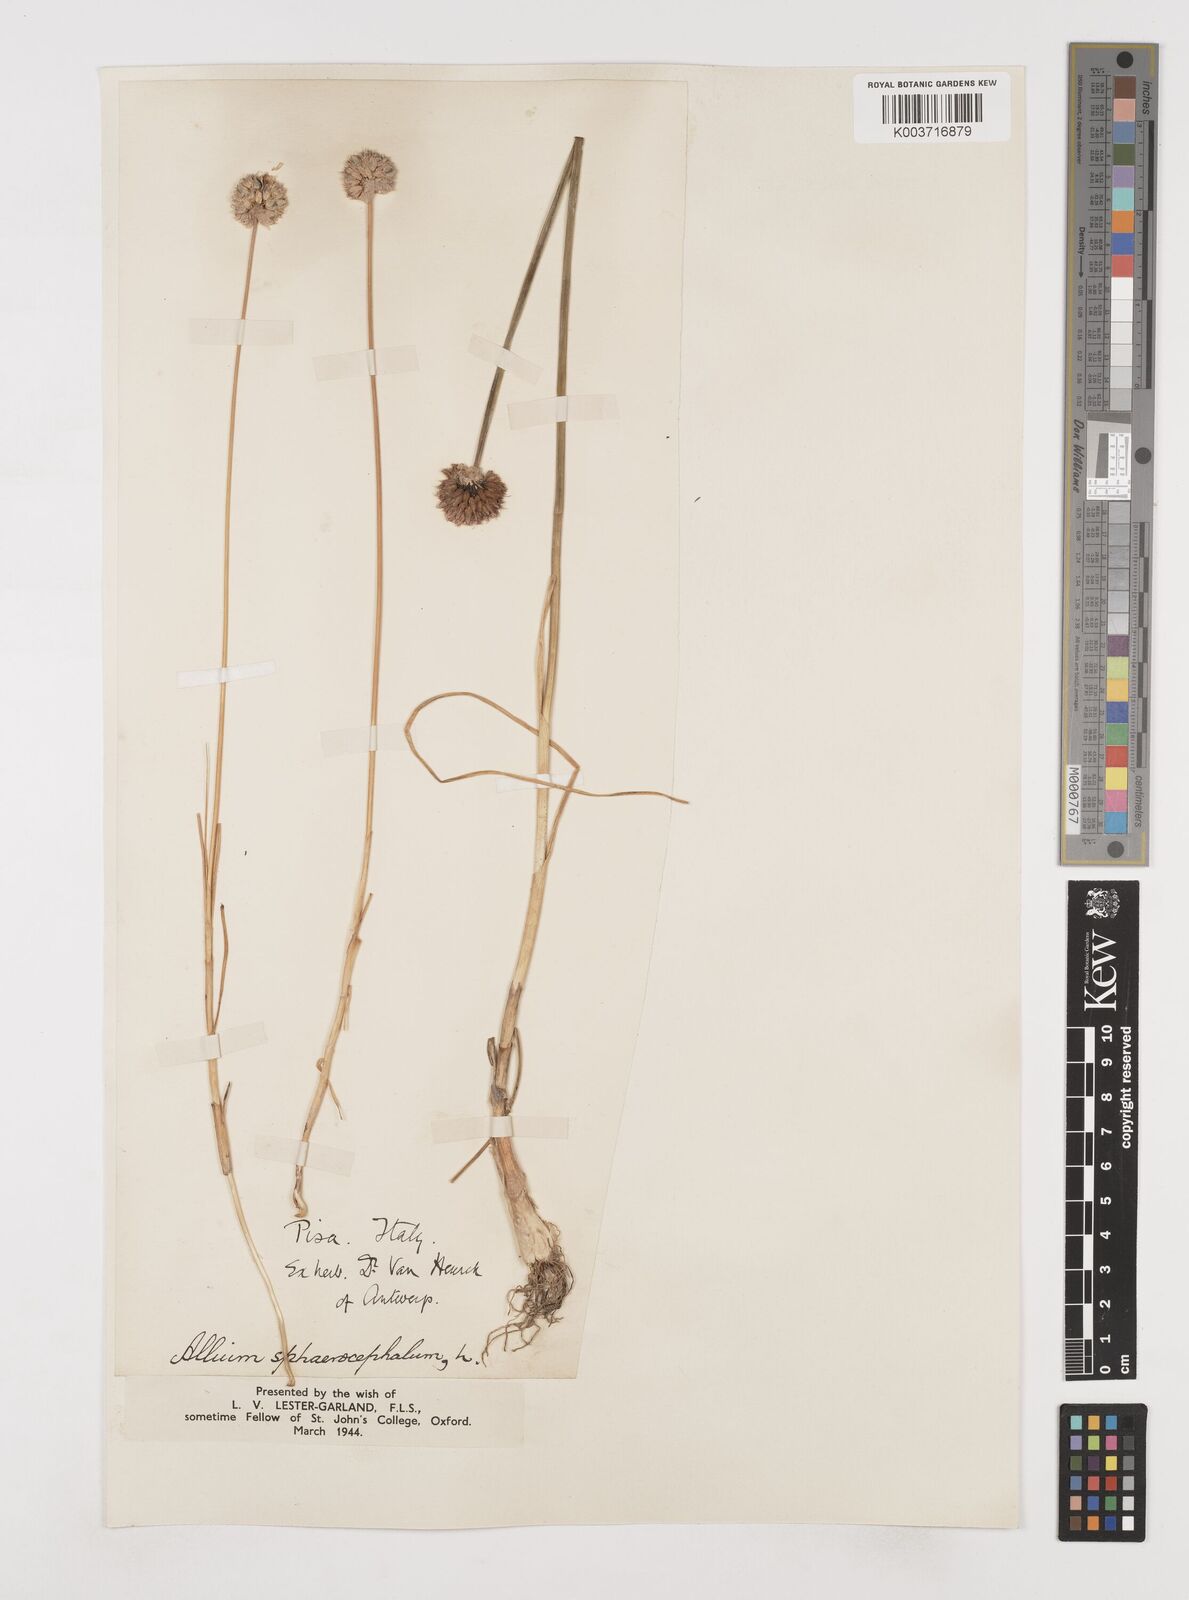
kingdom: Plantae
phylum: Tracheophyta
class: Liliopsida
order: Asparagales
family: Amaryllidaceae
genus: Allium
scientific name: Allium sphaerocephalon
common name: Round-headed leek
